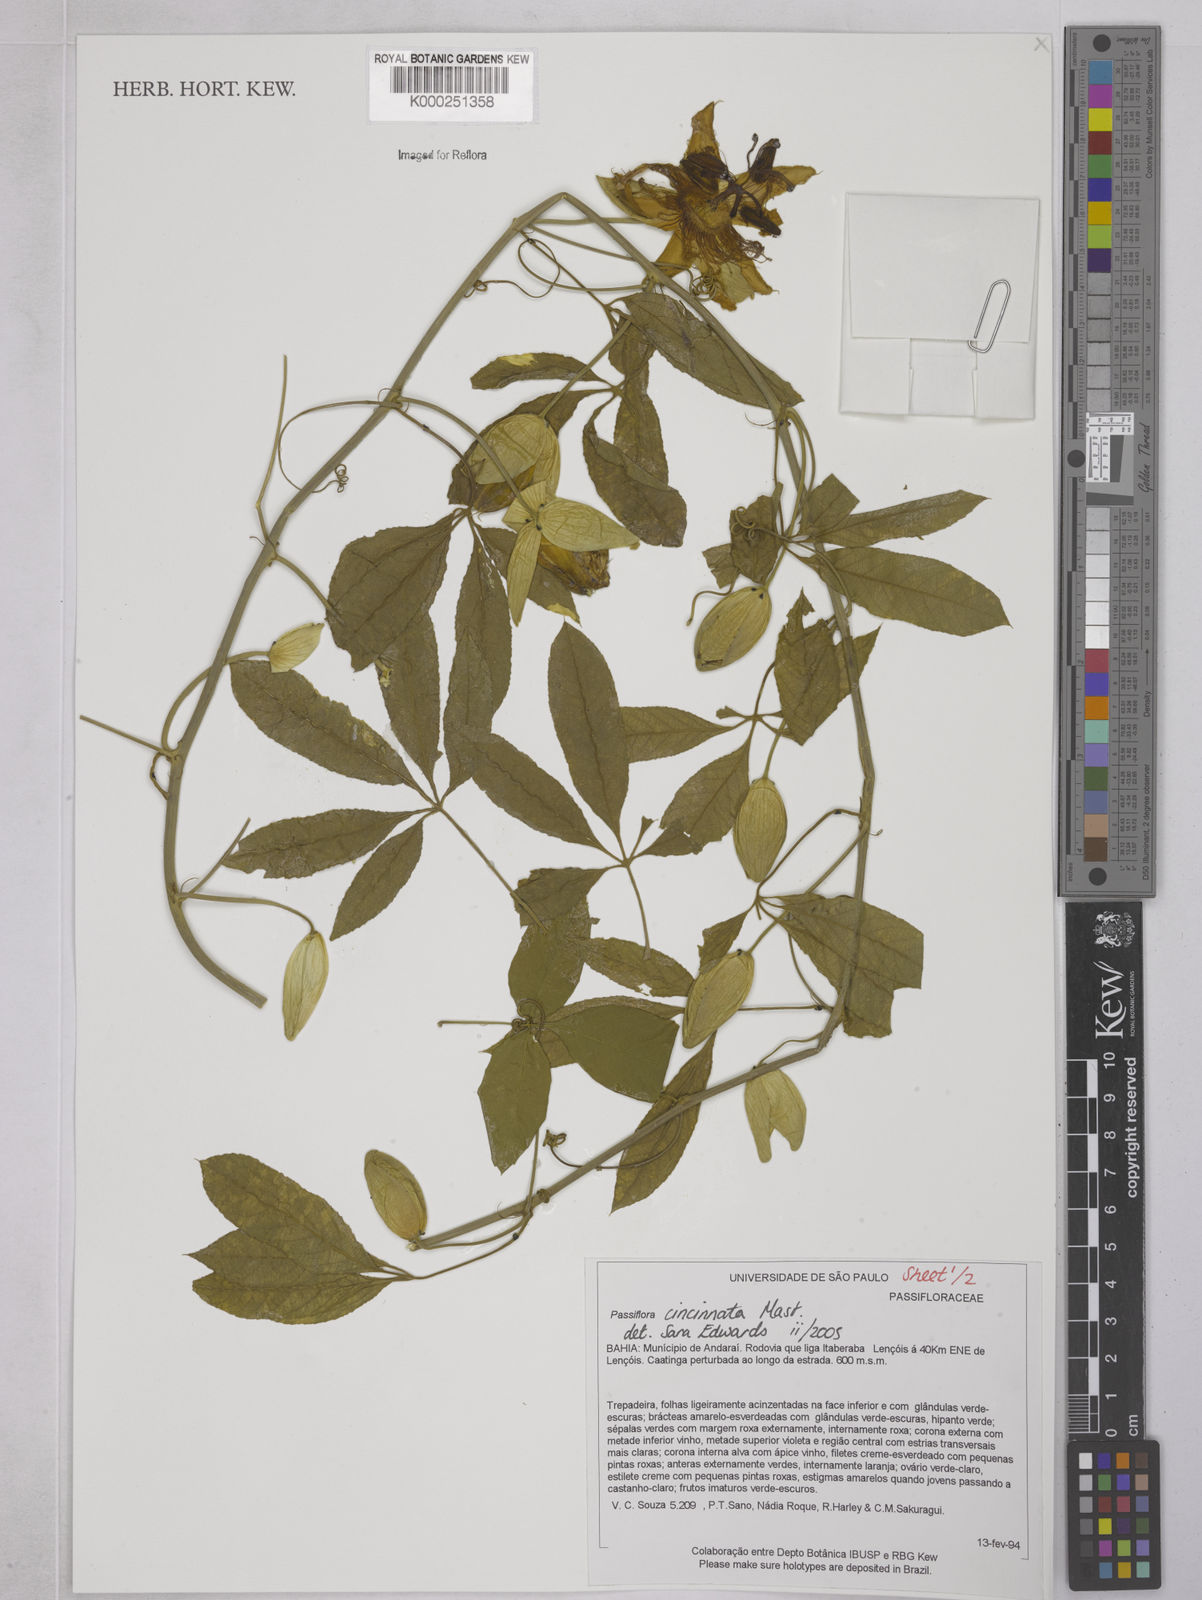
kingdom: Plantae
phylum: Tracheophyta
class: Magnoliopsida
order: Malpighiales
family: Passifloraceae
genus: Passiflora
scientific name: Passiflora cincinnata
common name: Crato passionvine
